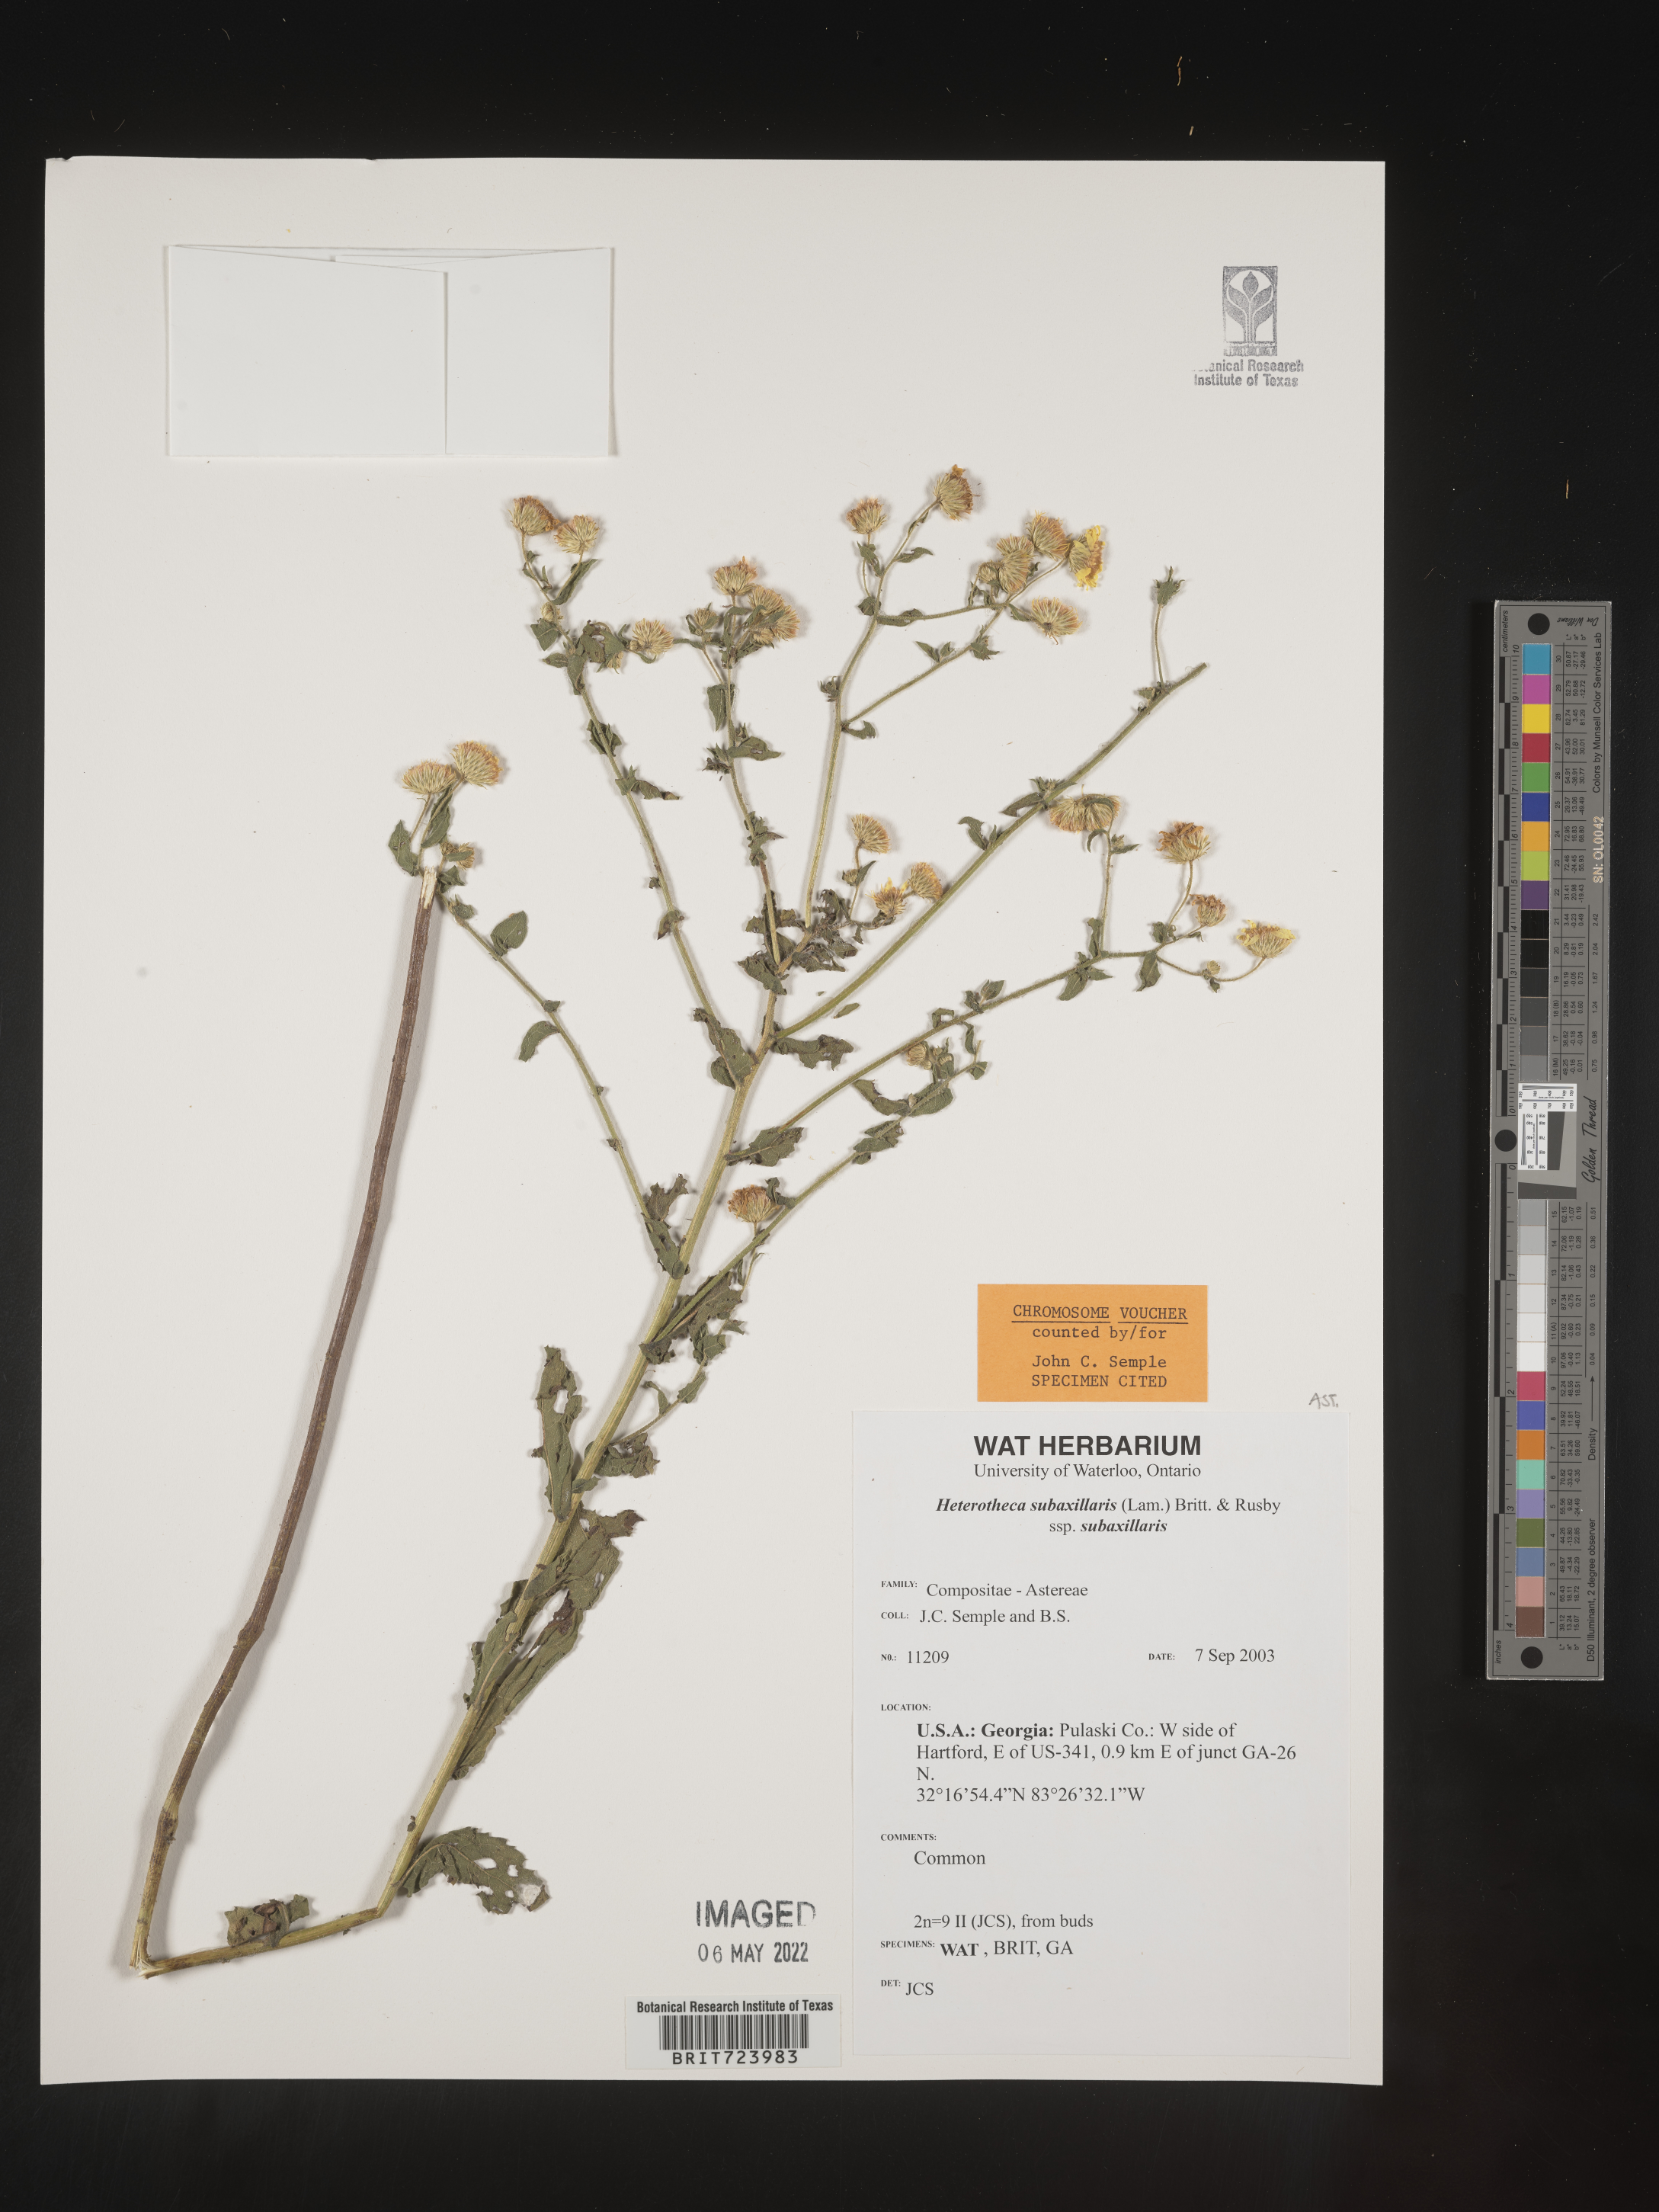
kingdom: Plantae
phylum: Tracheophyta
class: Magnoliopsida
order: Asterales
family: Asteraceae
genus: Heterotheca
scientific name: Heterotheca subaxillaris
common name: Camphorweed
